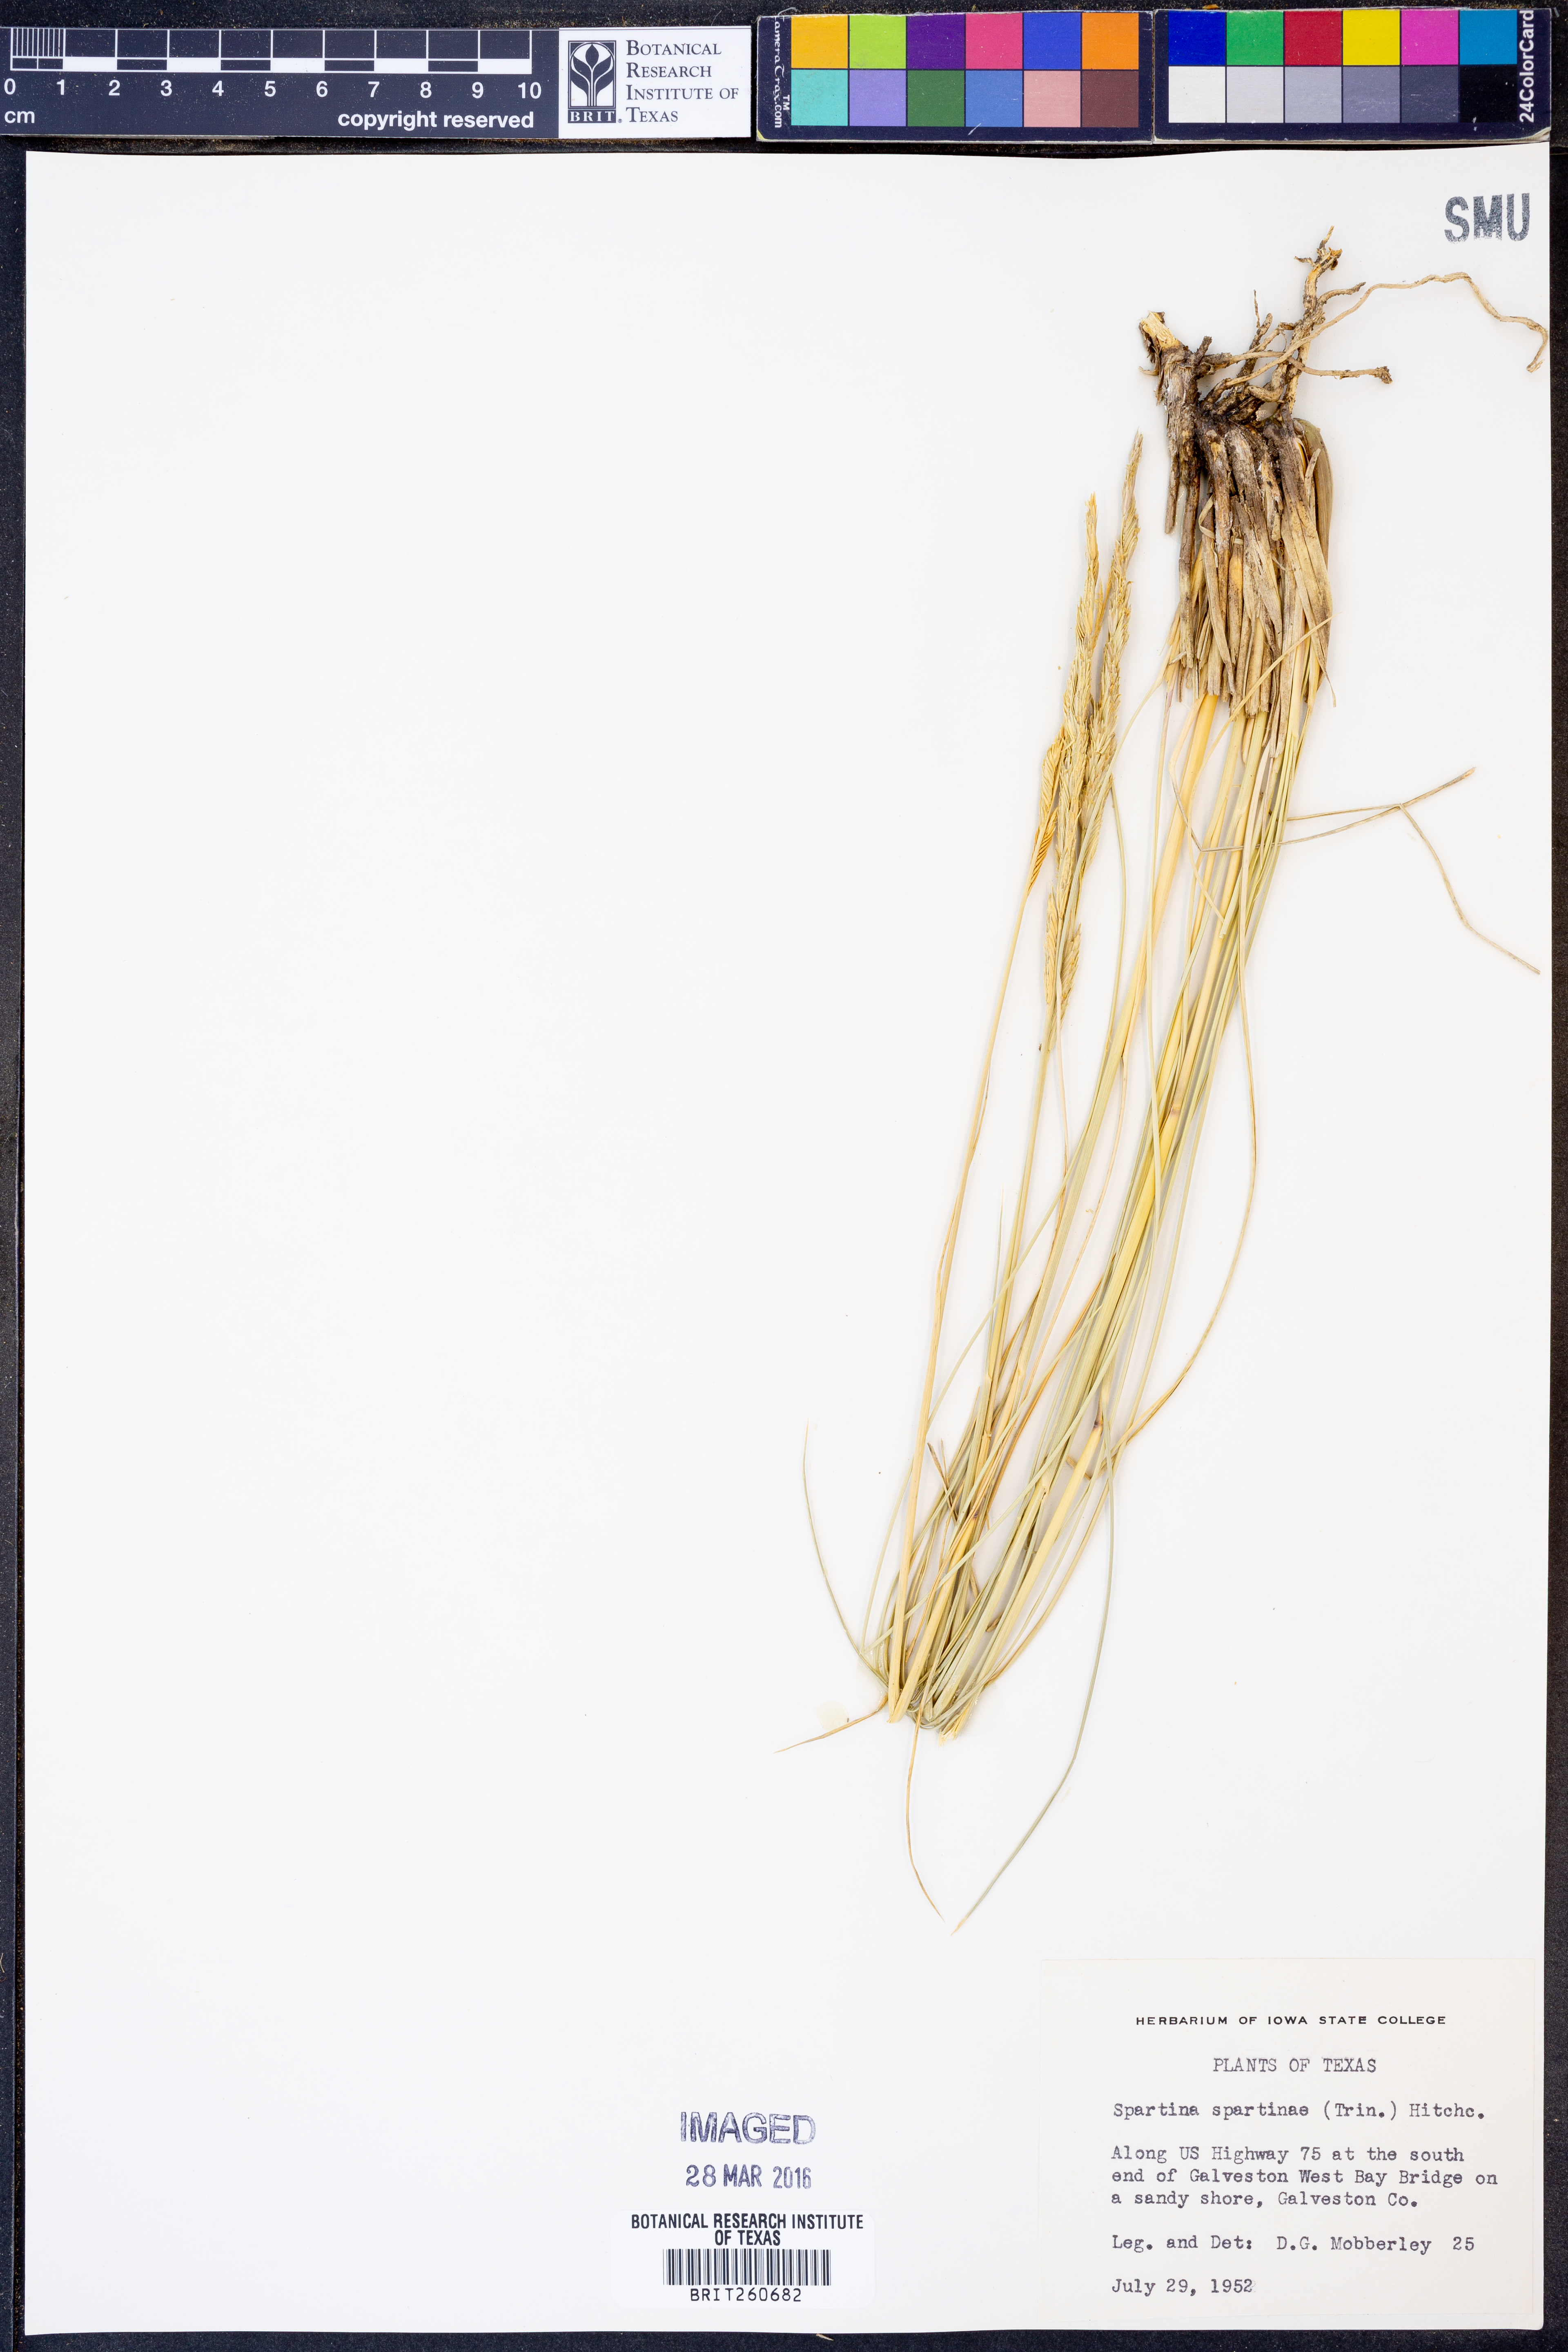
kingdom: Plantae
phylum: Tracheophyta
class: Liliopsida
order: Poales
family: Poaceae
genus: Sporobolus
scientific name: Sporobolus spartinae
